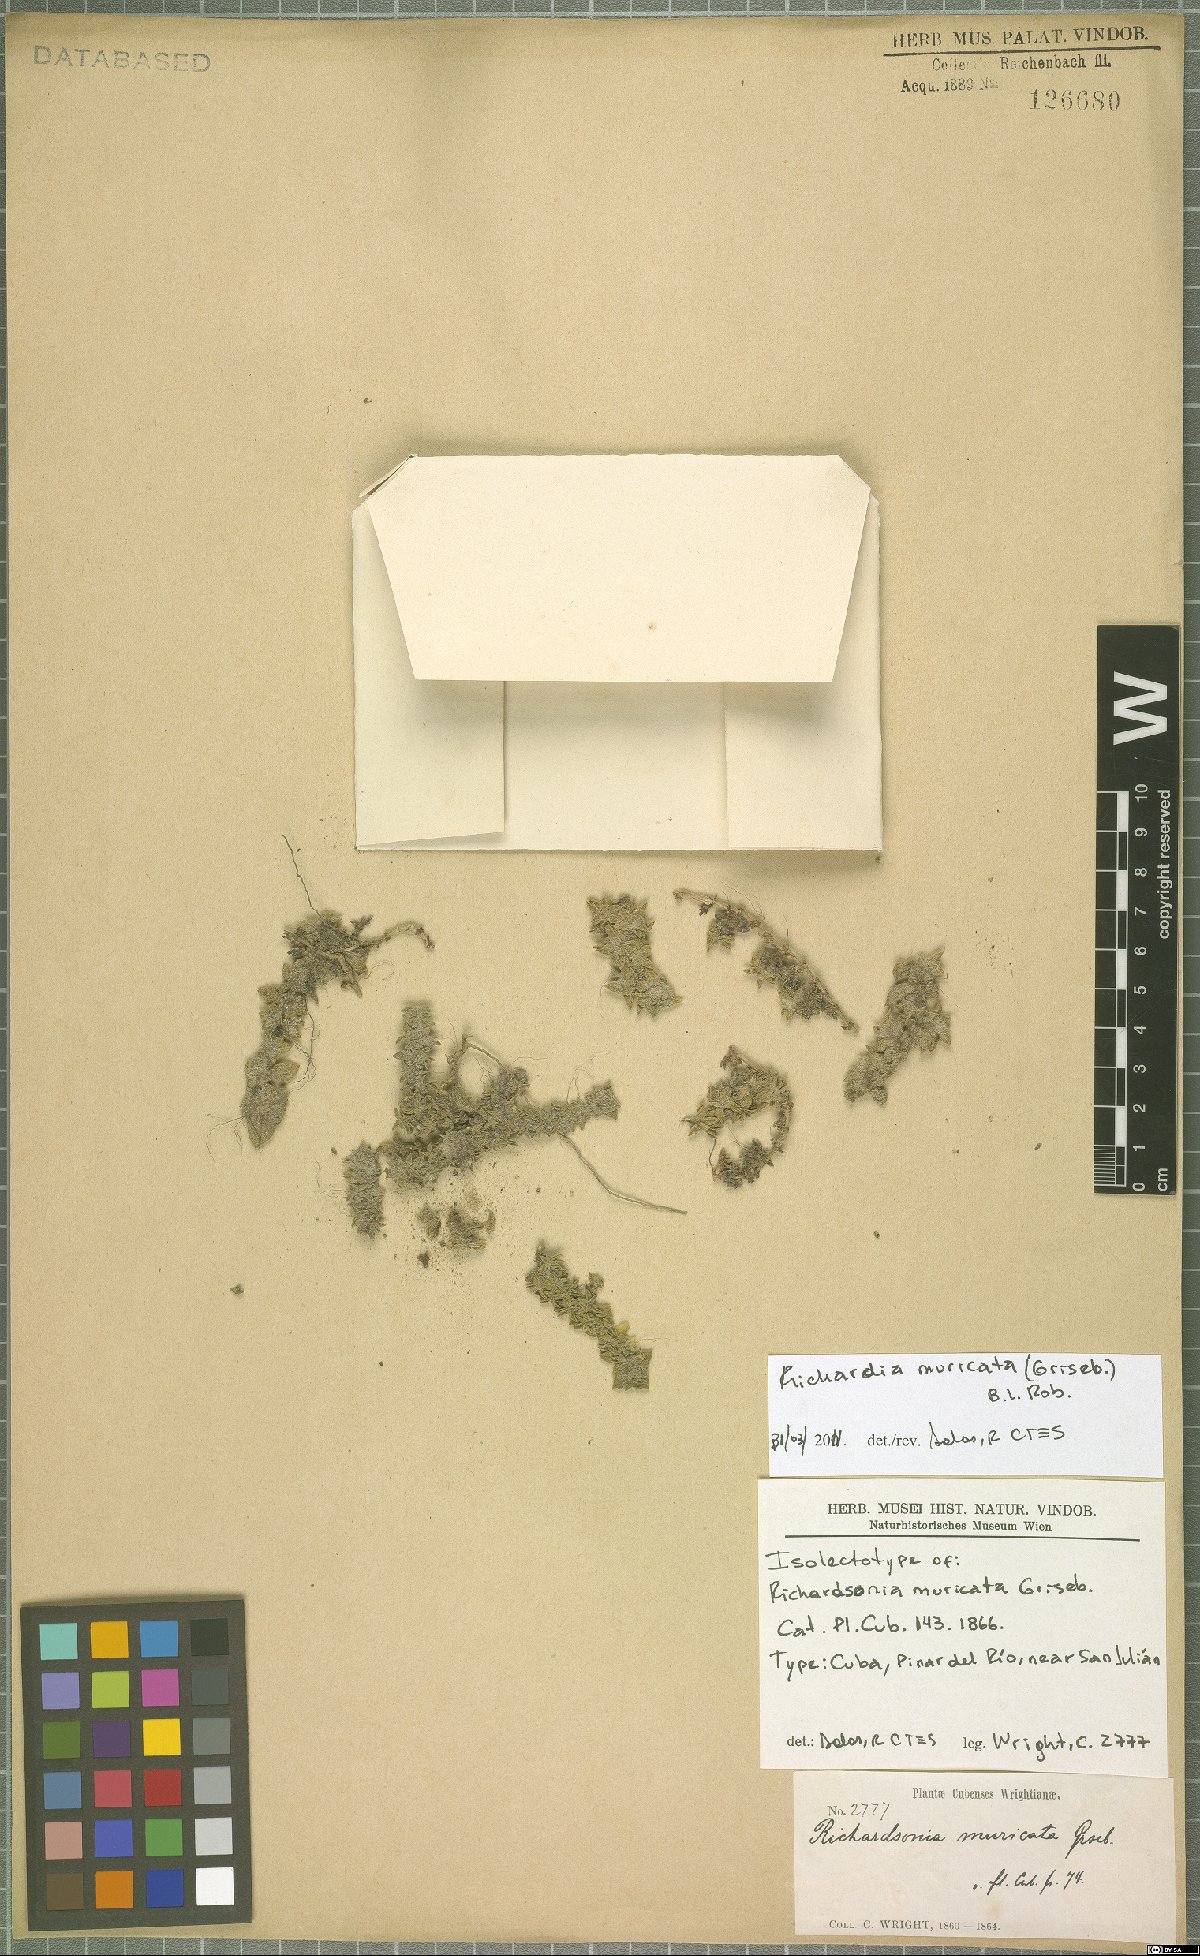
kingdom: Plantae
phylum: Tracheophyta
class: Magnoliopsida
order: Gentianales
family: Rubiaceae
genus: Richardia
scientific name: Richardia muricata
